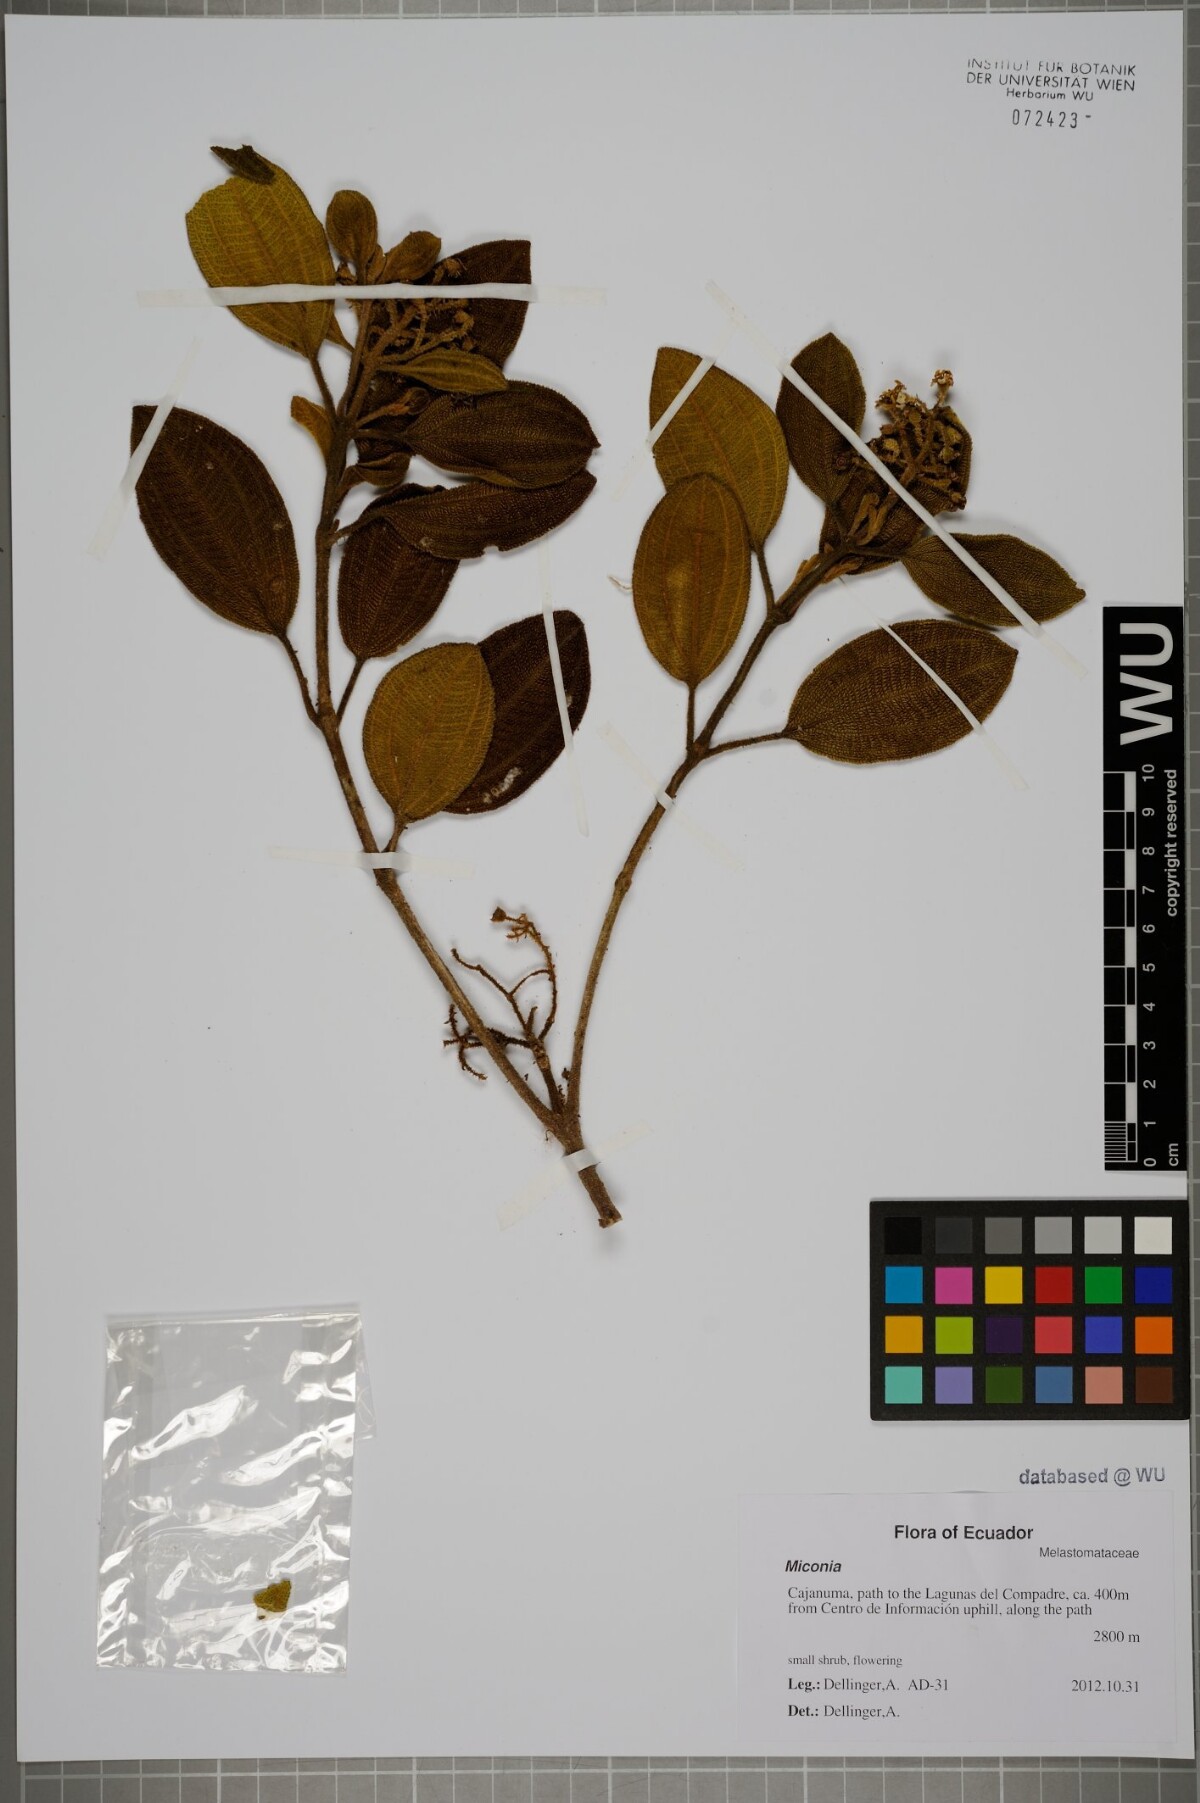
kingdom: Plantae
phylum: Tracheophyta
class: Magnoliopsida
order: Myrtales
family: Melastomataceae
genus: Miconia
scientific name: Miconia
